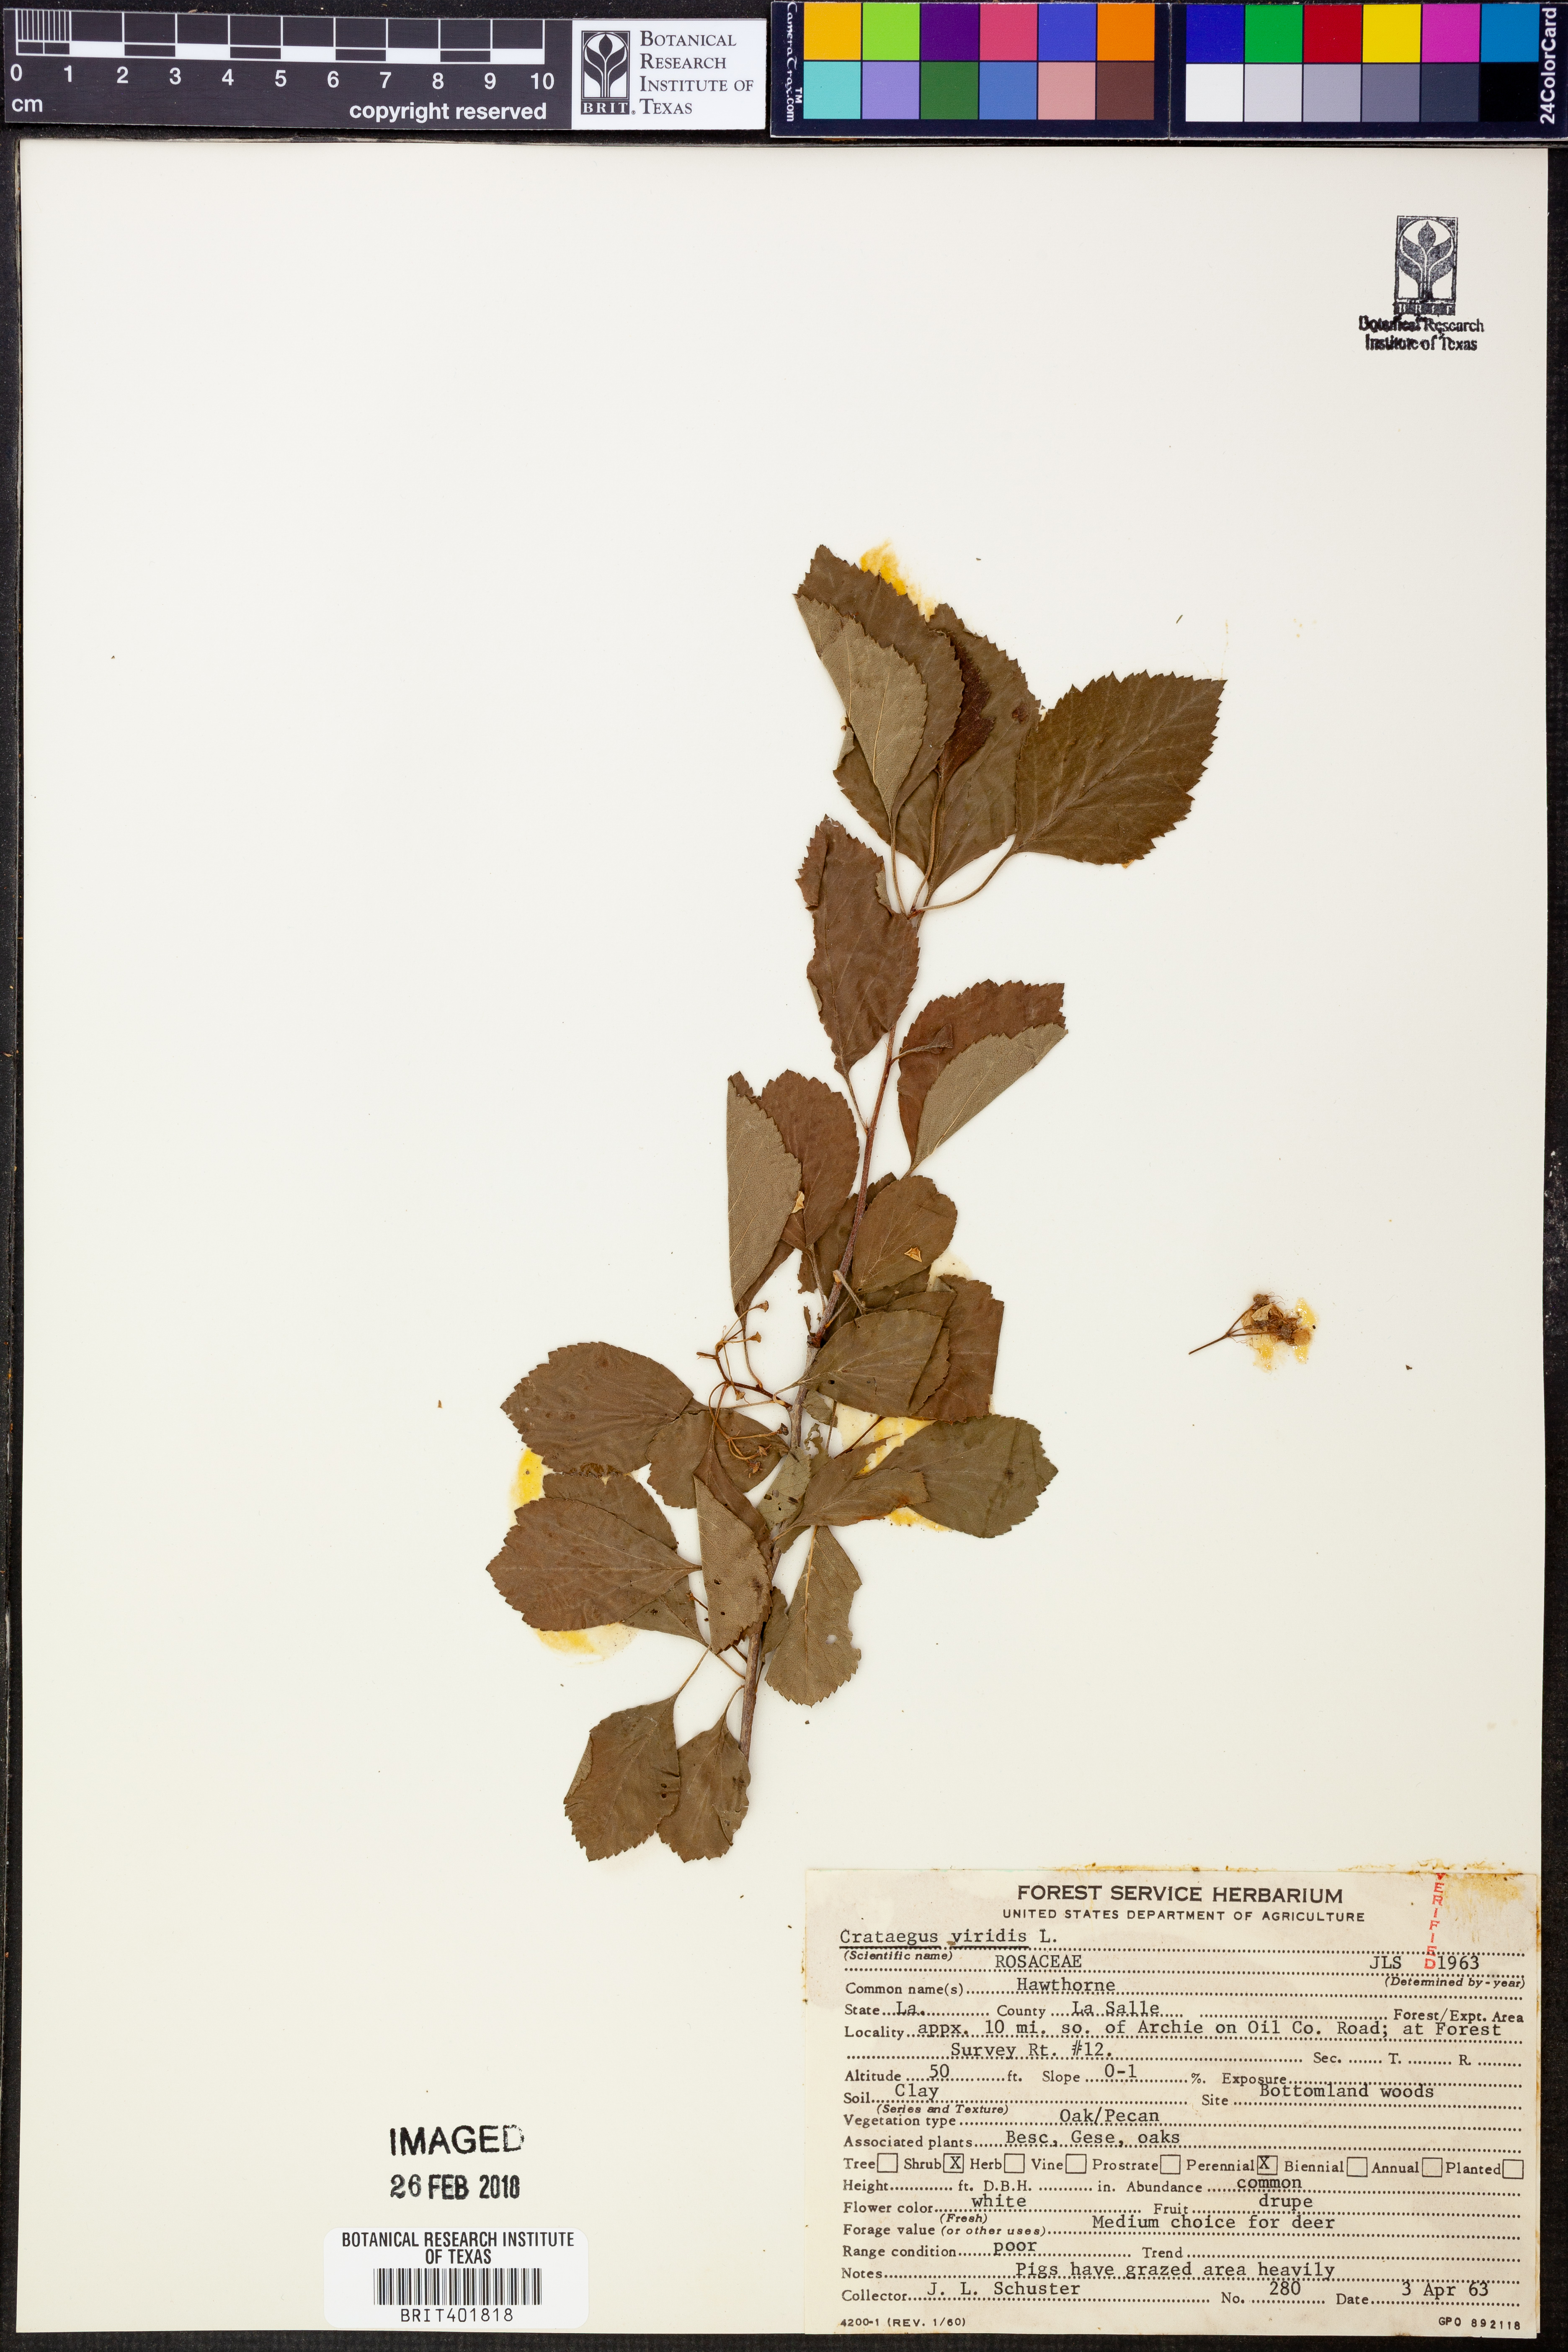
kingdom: Plantae
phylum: Tracheophyta
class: Magnoliopsida
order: Rosales
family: Rosaceae
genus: Crataegus
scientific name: Crataegus viridis
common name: Southernthorn
